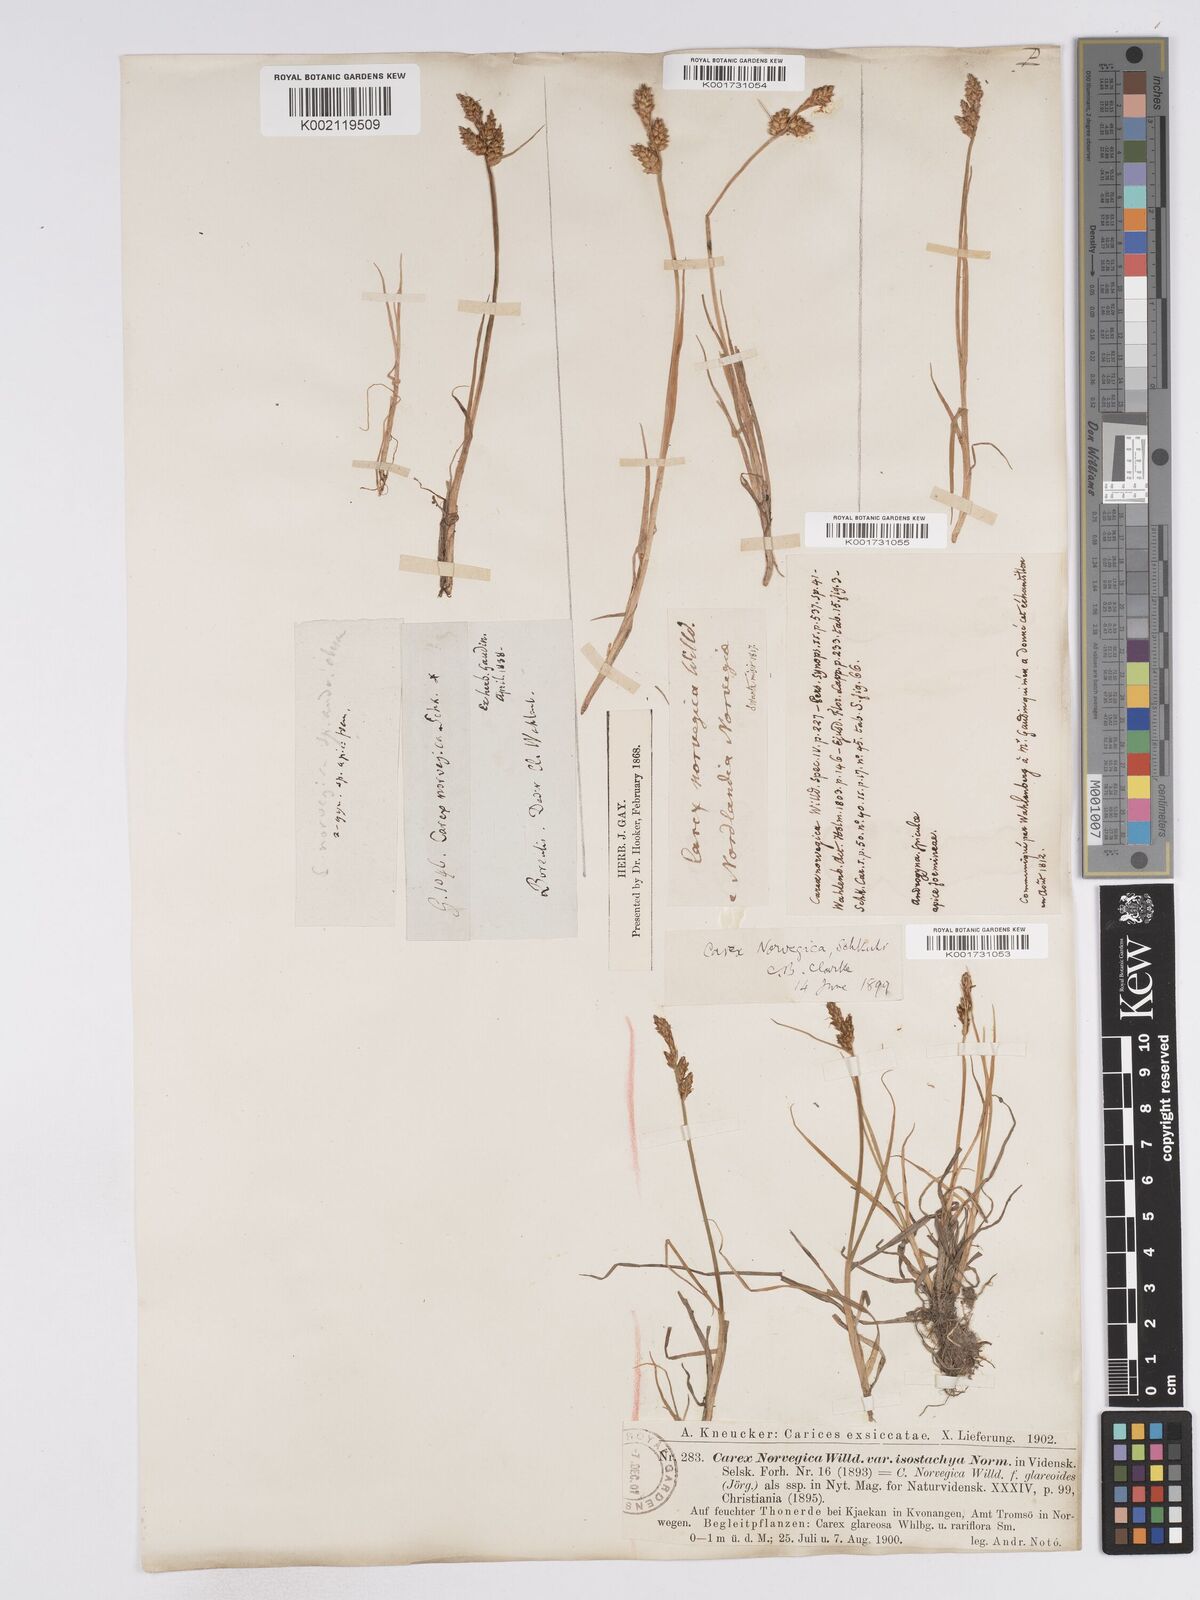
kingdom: Plantae
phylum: Tracheophyta
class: Liliopsida
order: Poales
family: Cyperaceae
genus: Carex
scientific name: Carex mackenziei
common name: Mackenzie's sedge
